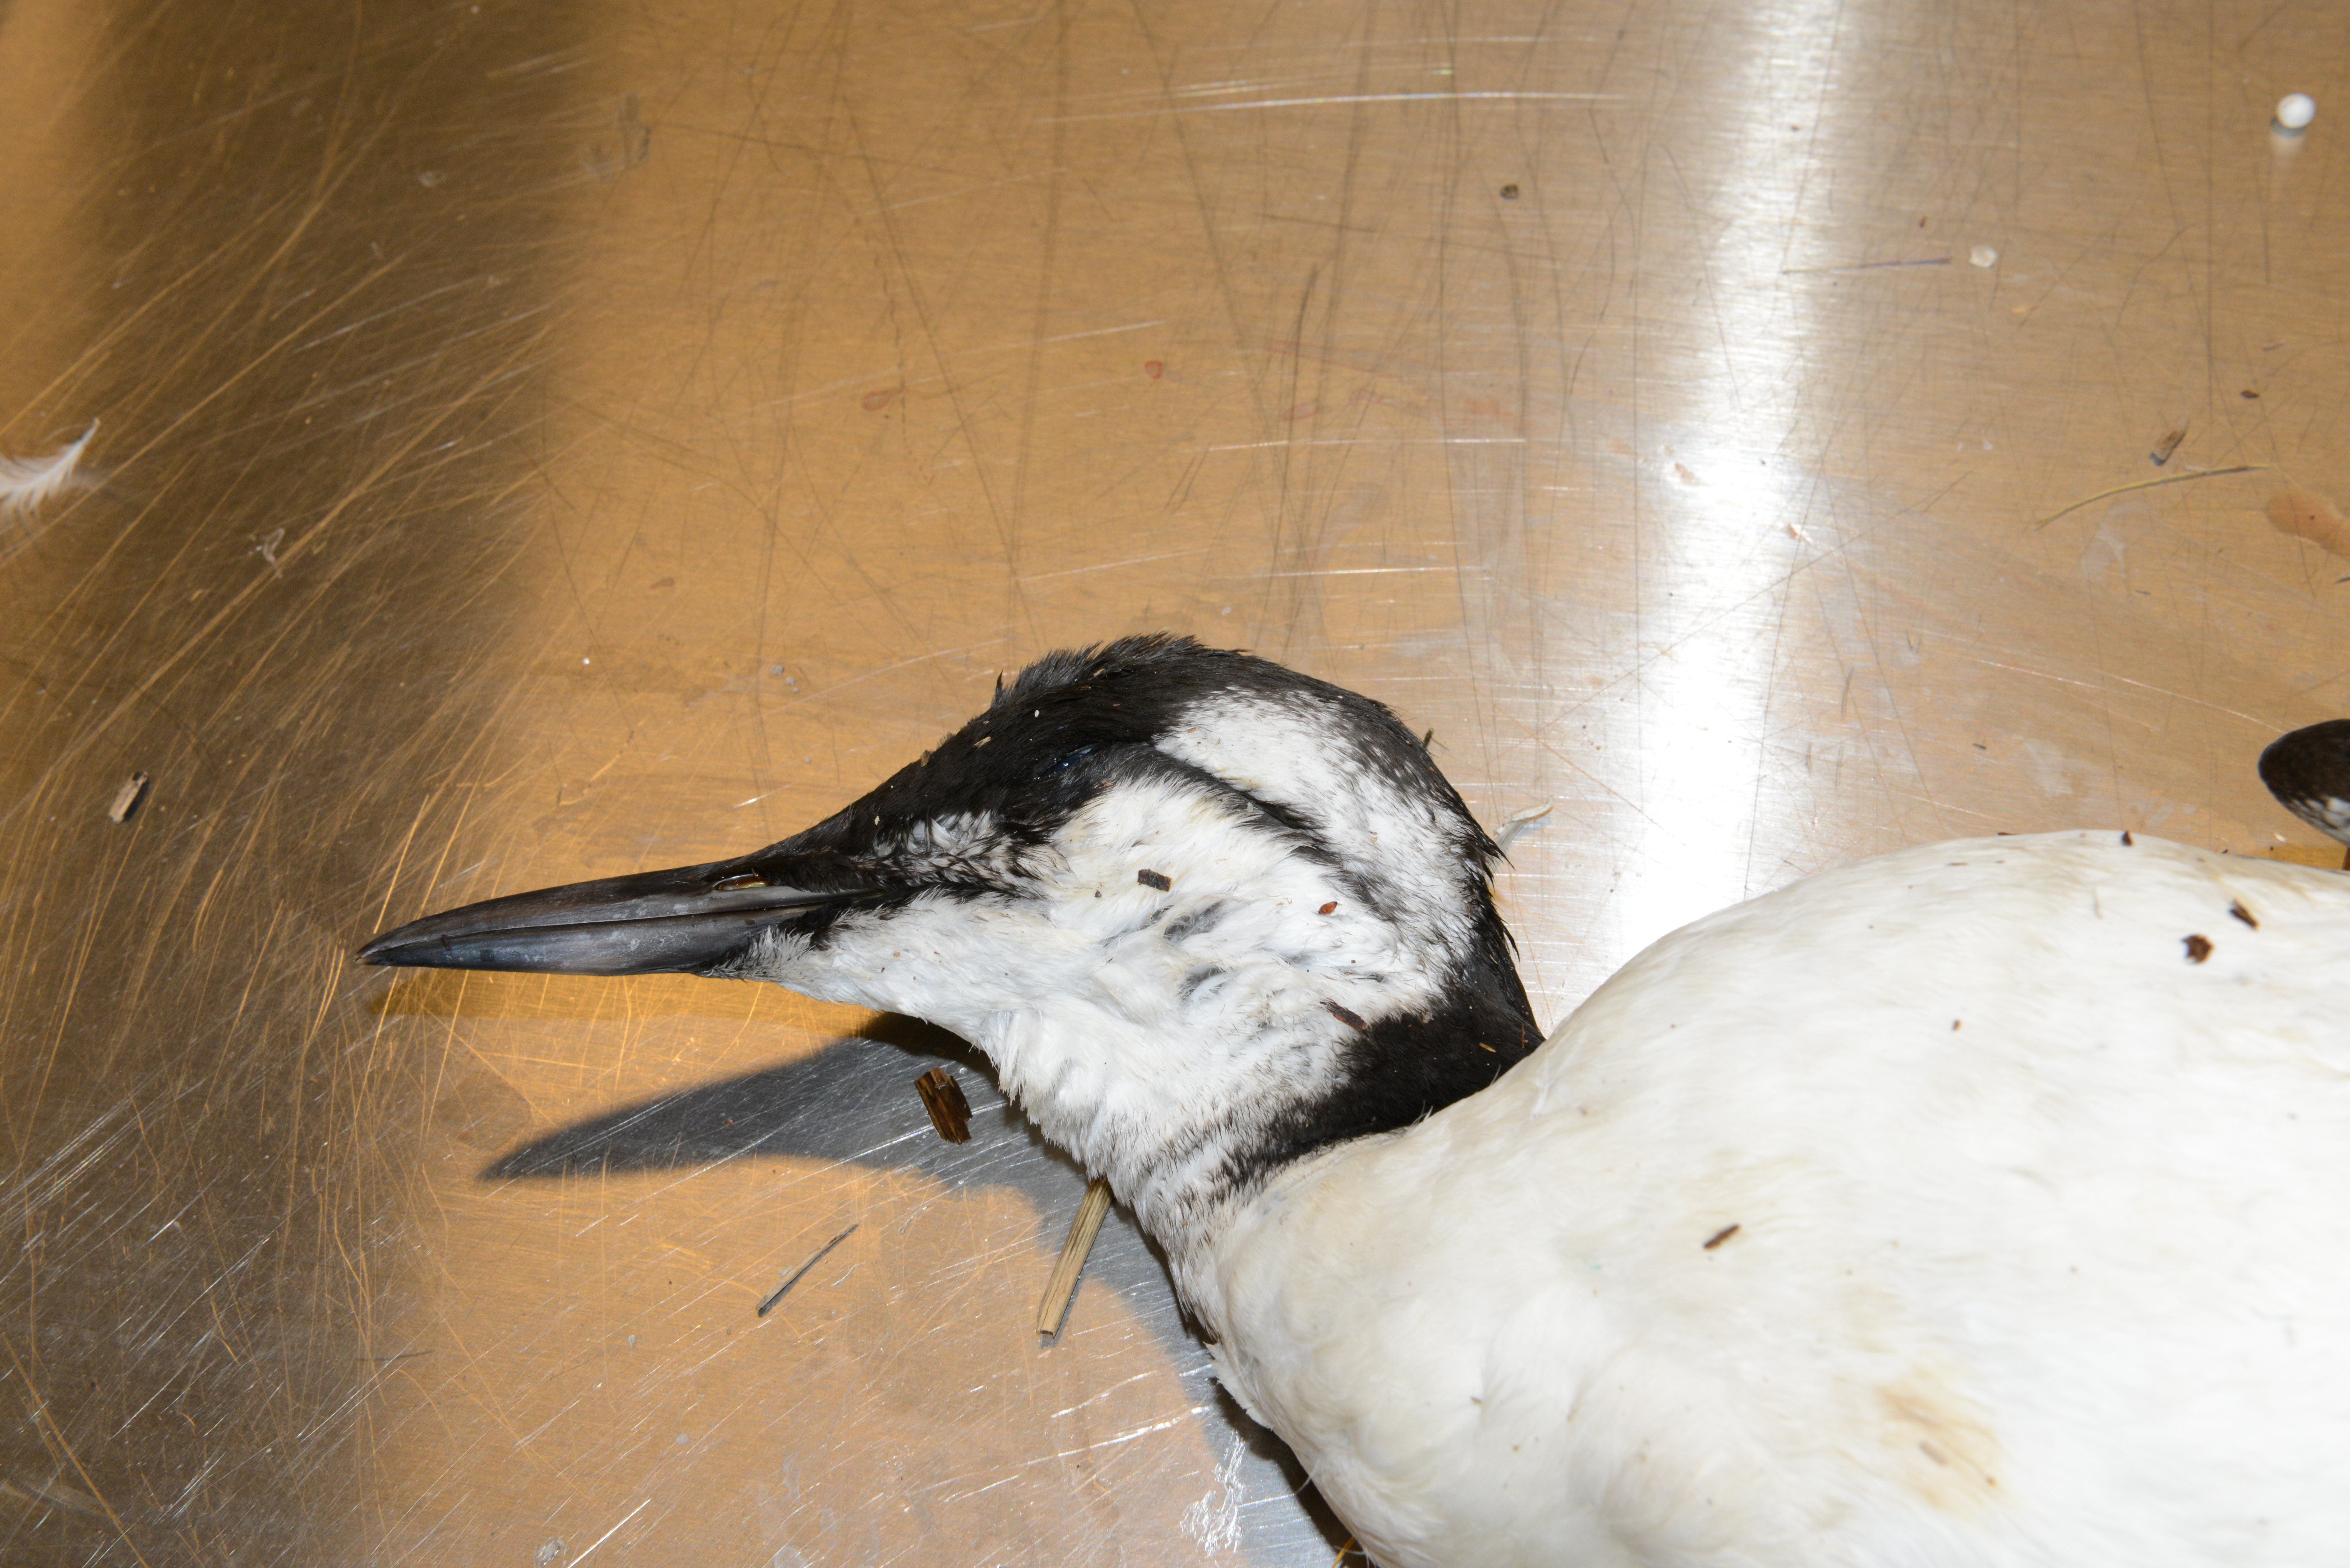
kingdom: Animalia
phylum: Chordata
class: Aves
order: Charadriiformes
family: Alcidae
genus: Uria
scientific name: Uria aalge
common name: Common murre
